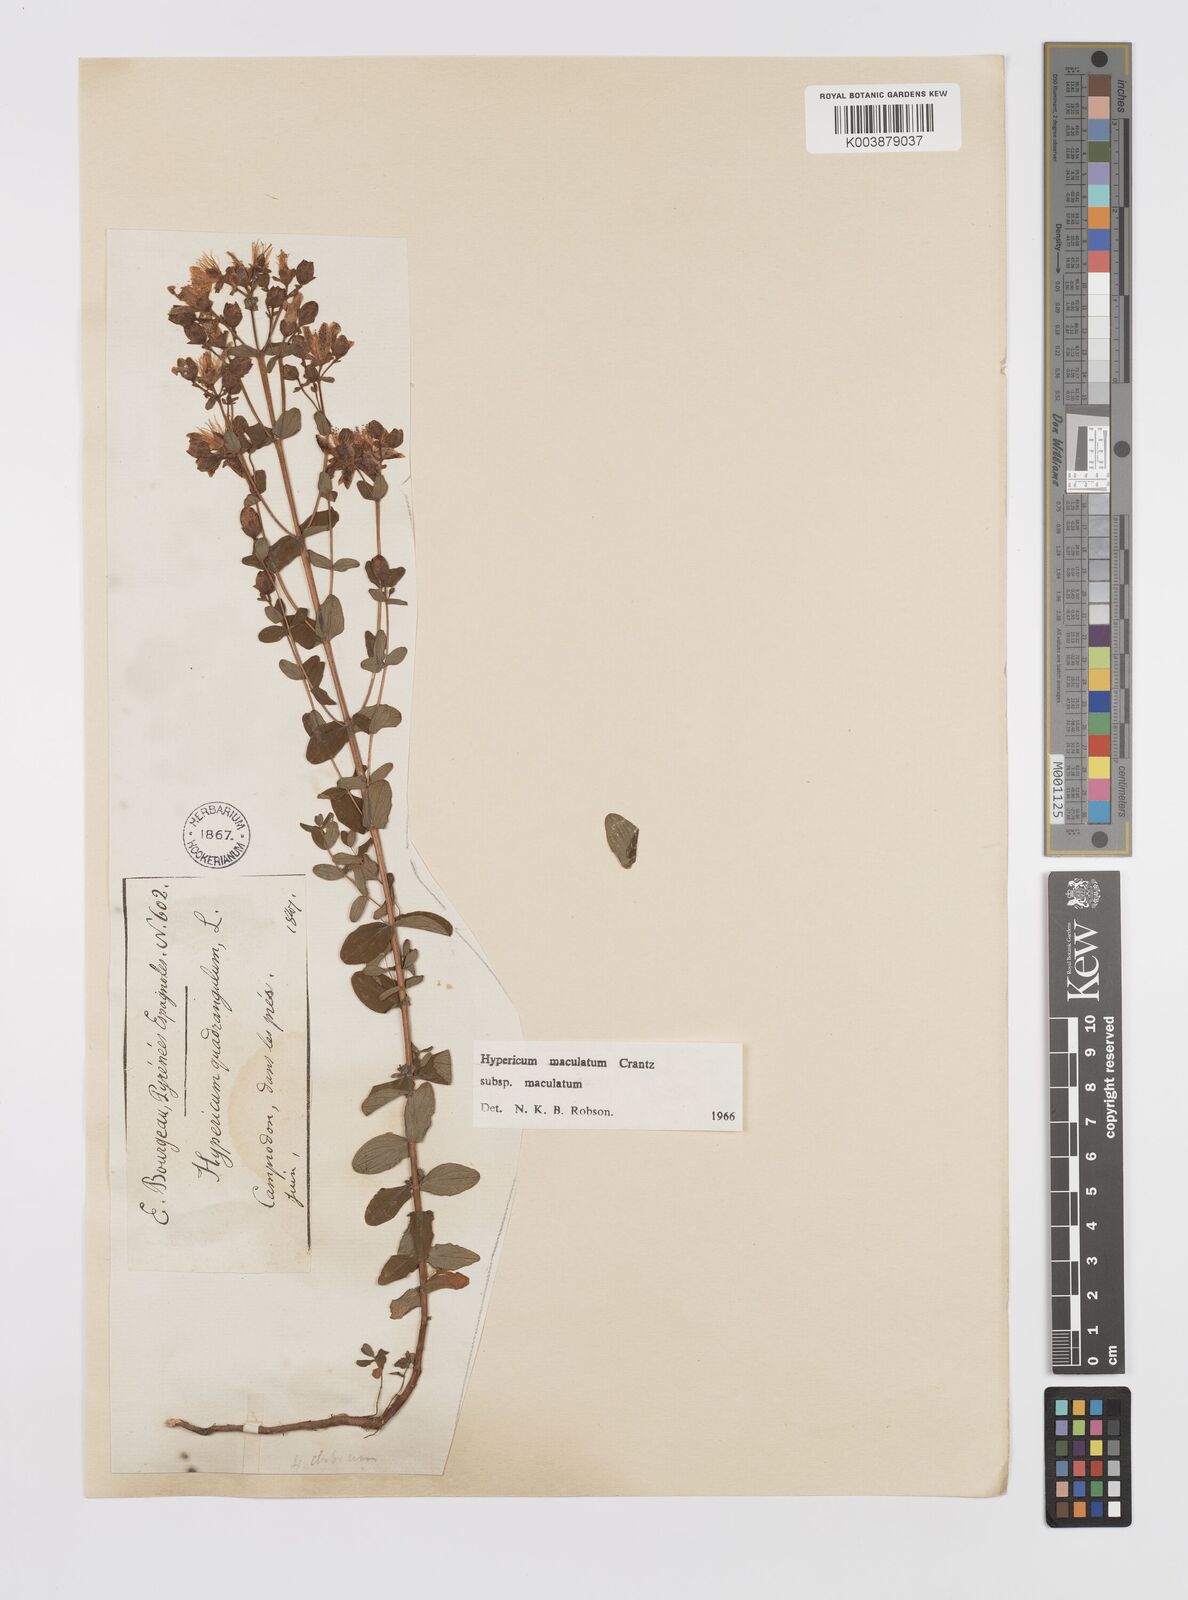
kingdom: Plantae
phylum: Tracheophyta
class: Magnoliopsida
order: Malpighiales
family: Hypericaceae
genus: Hypericum
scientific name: Hypericum maculatum
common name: Imperforate st. john's-wort
